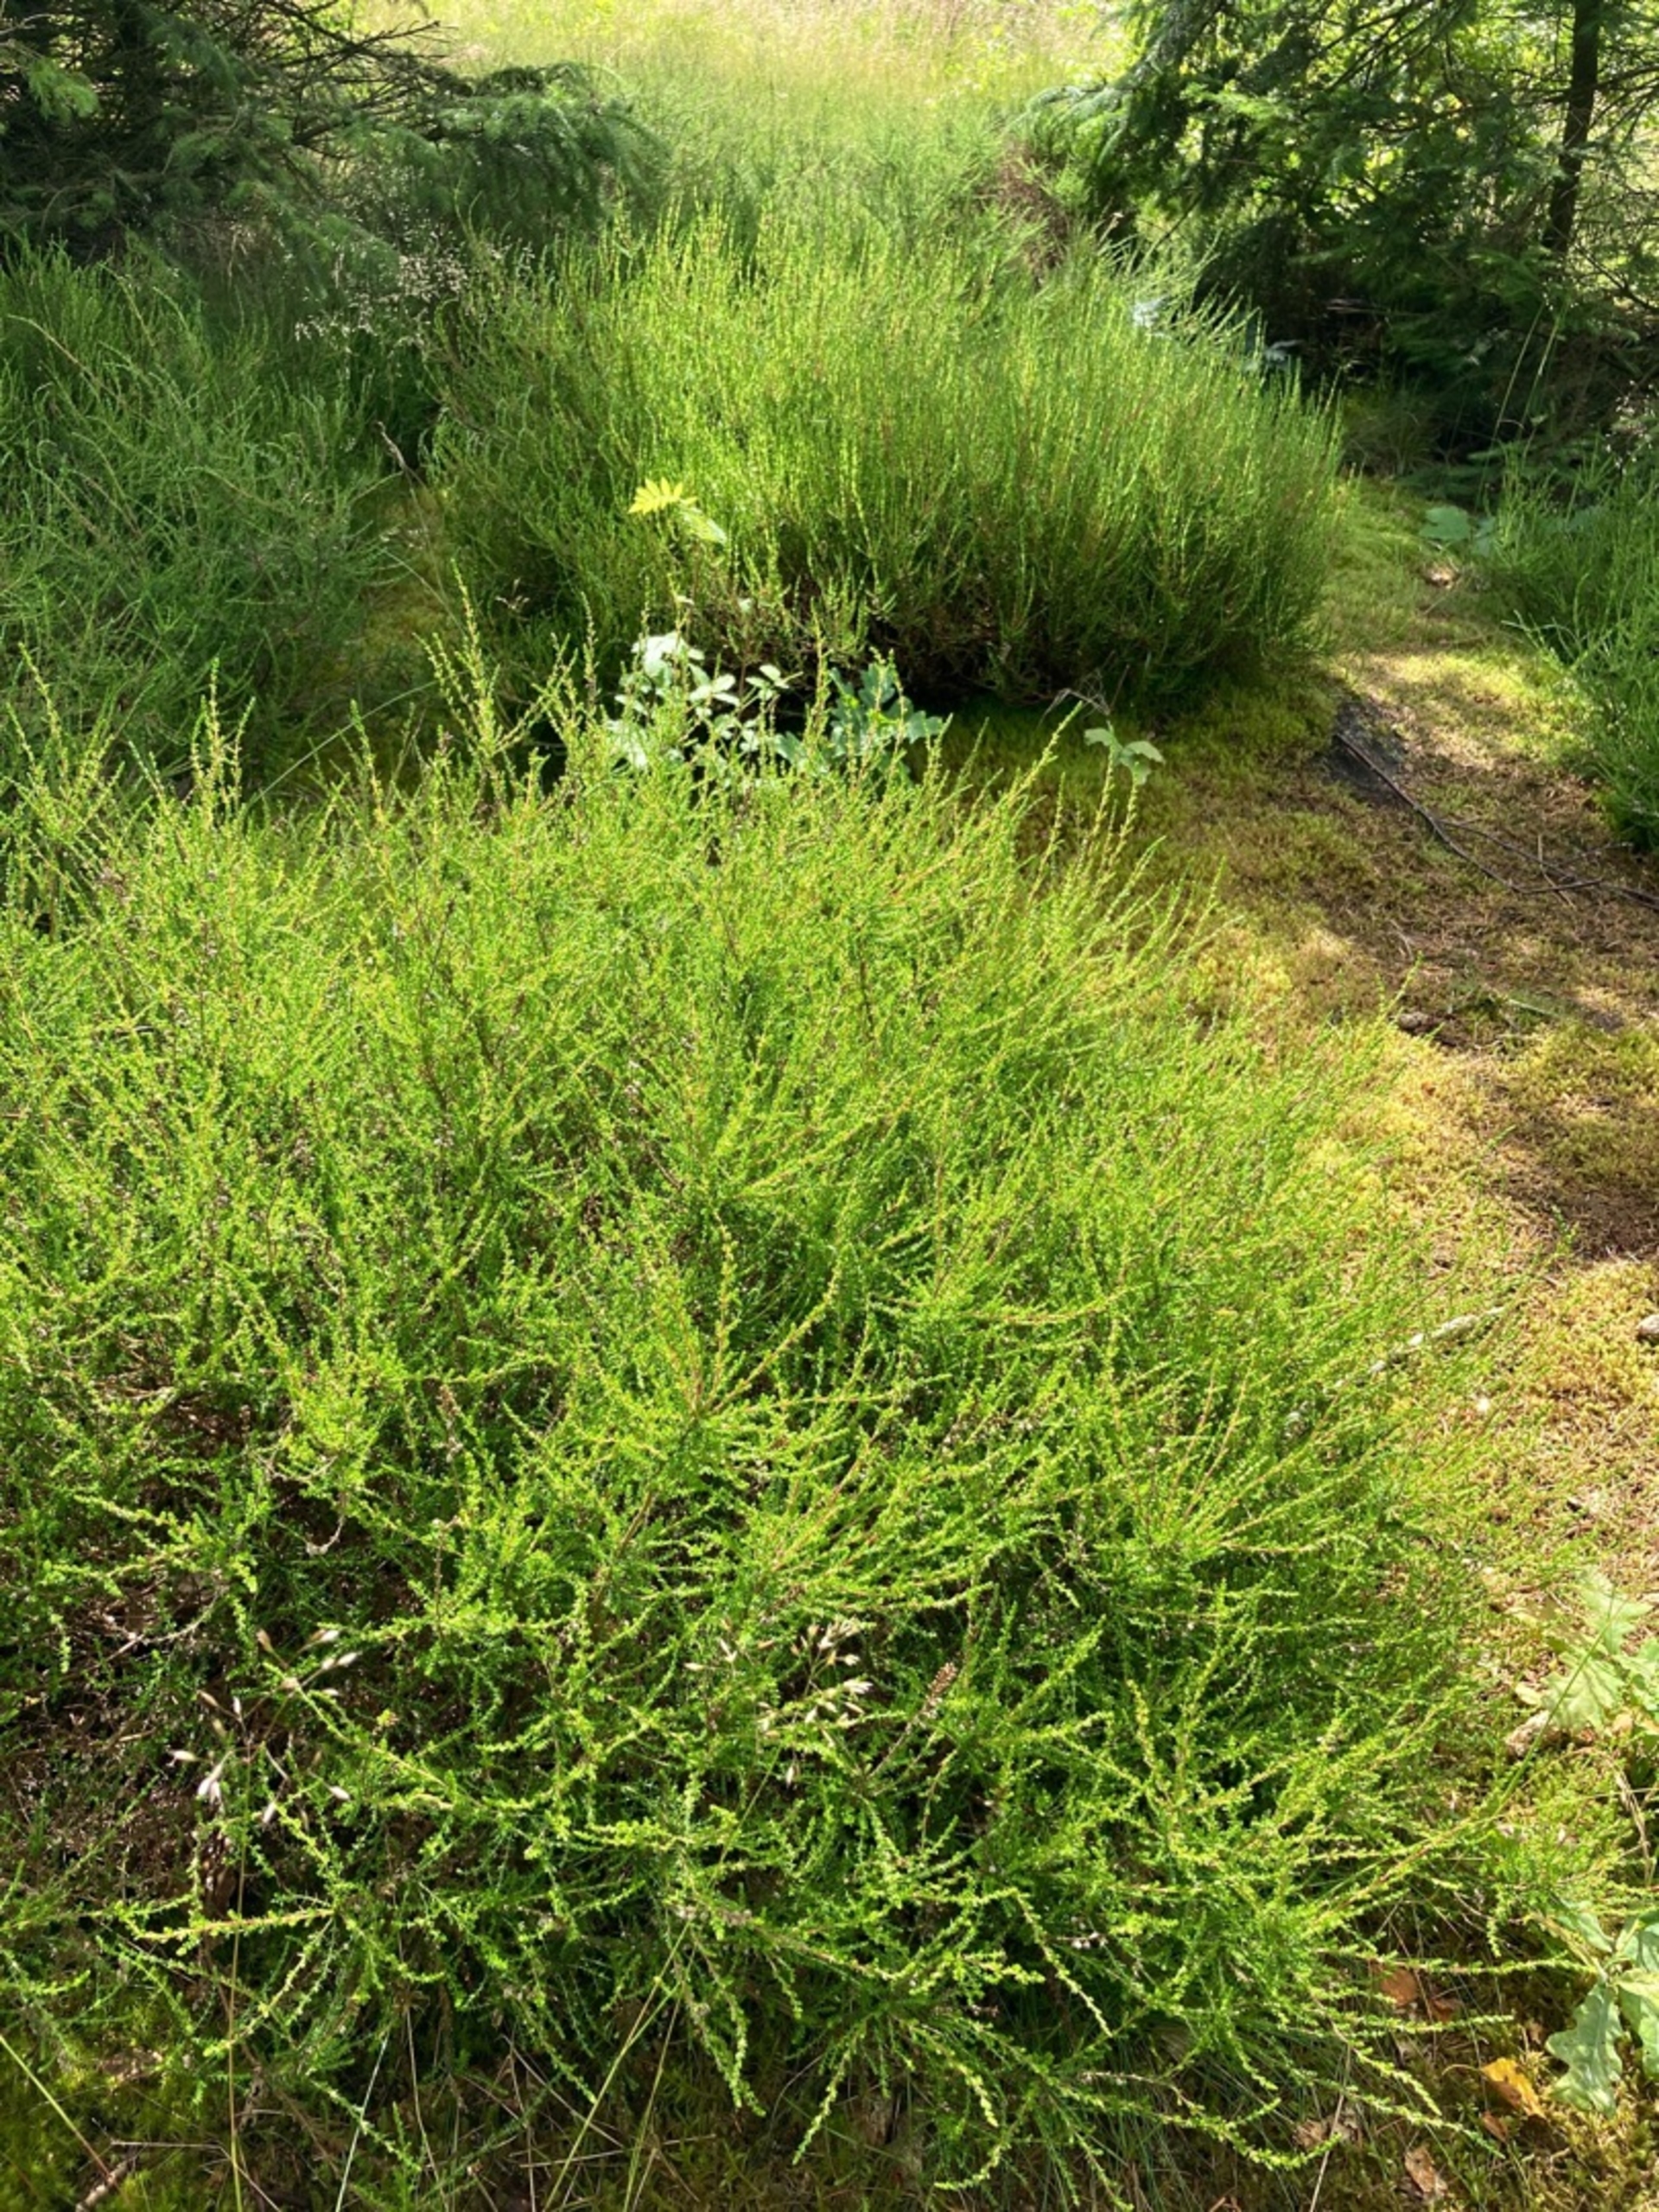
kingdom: Plantae
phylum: Tracheophyta
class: Magnoliopsida
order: Ericales
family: Ericaceae
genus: Calluna
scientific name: Calluna vulgaris
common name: Hedelyng
